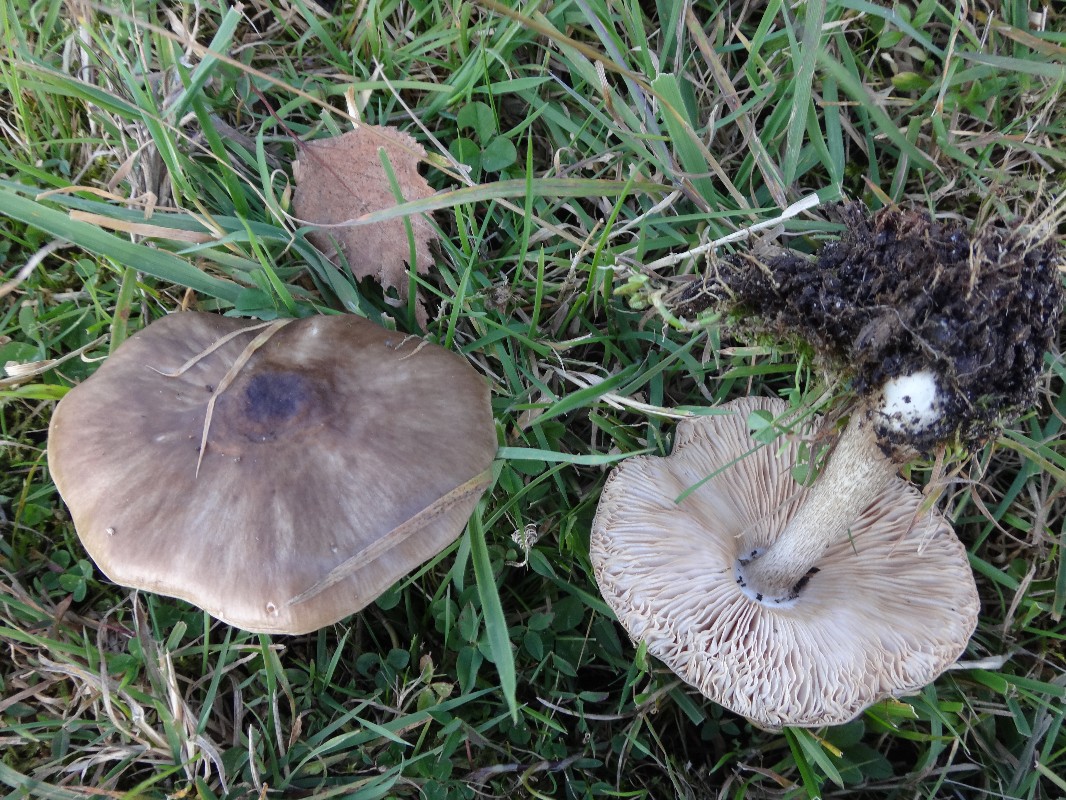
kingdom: Fungi
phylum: Basidiomycota
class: Agaricomycetes
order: Agaricales
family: Pluteaceae
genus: Pluteus
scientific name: Pluteus cervinus
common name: sodfarvet skærmhat
